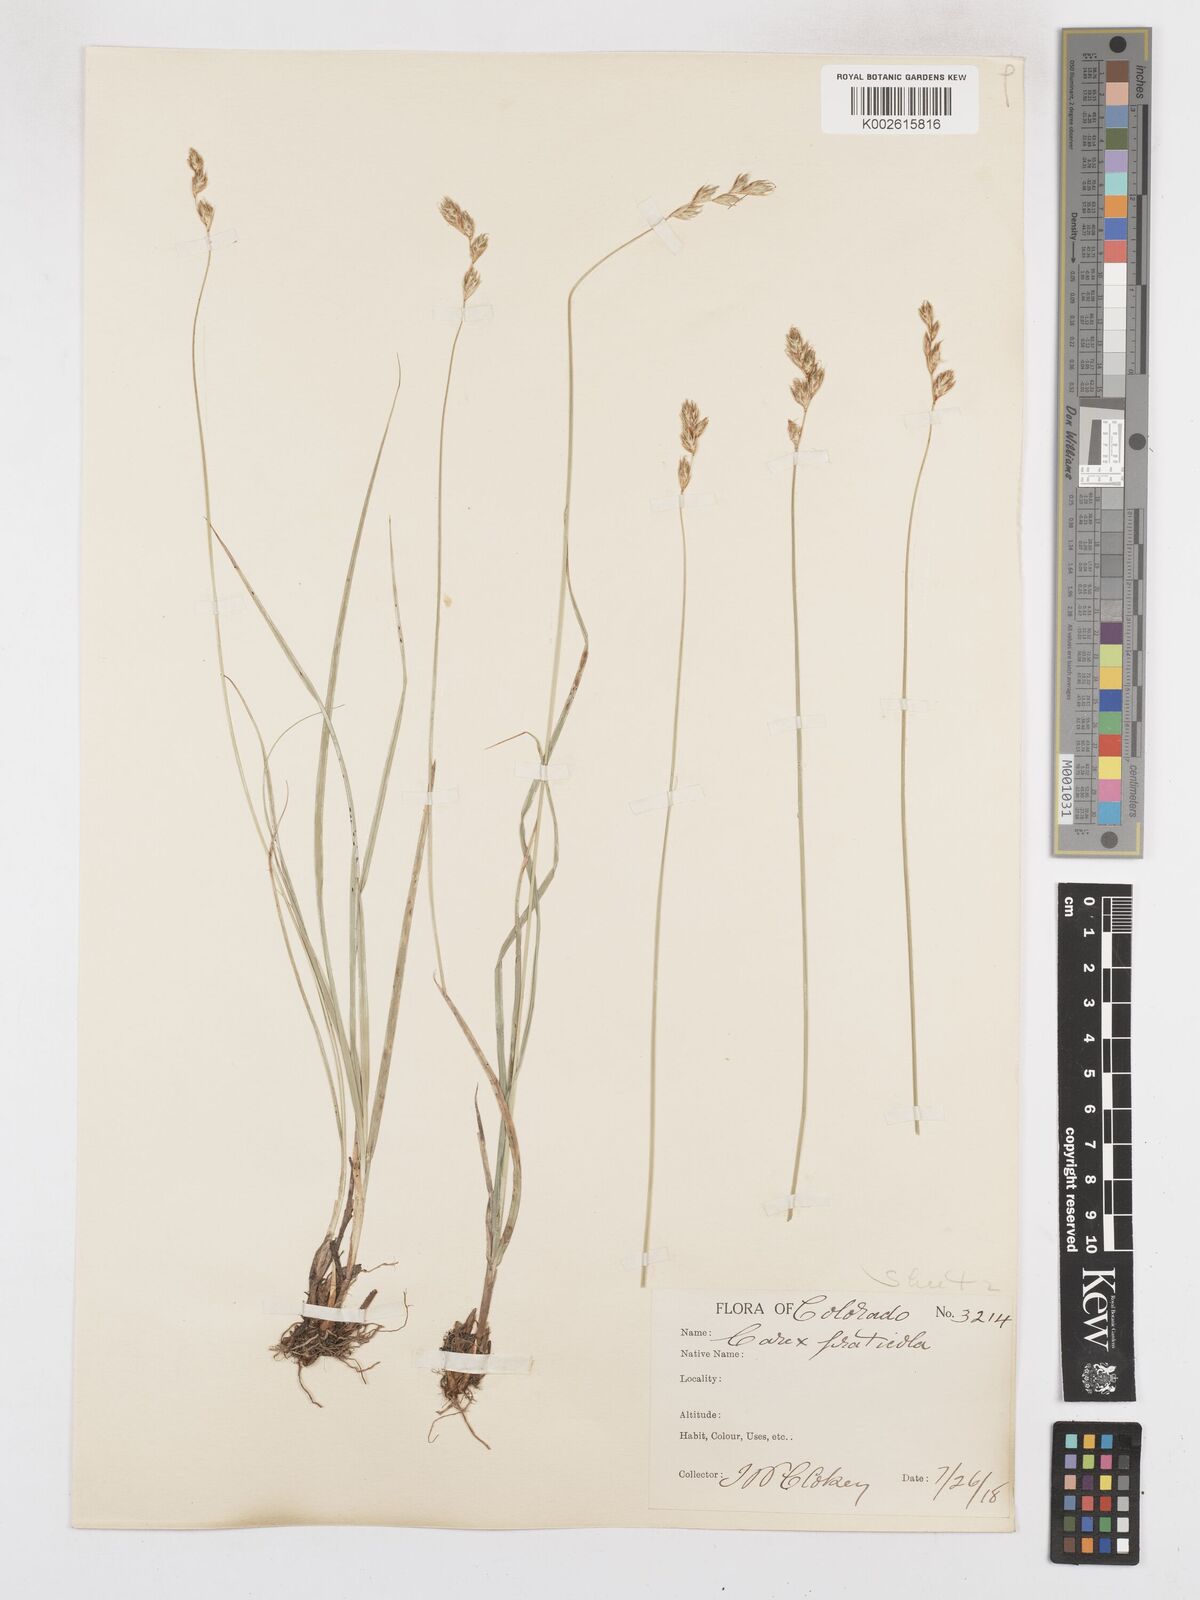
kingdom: Plantae
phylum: Tracheophyta
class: Liliopsida
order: Poales
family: Cyperaceae
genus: Carex
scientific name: Carex praticola
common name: Large-fruited oval sedge
